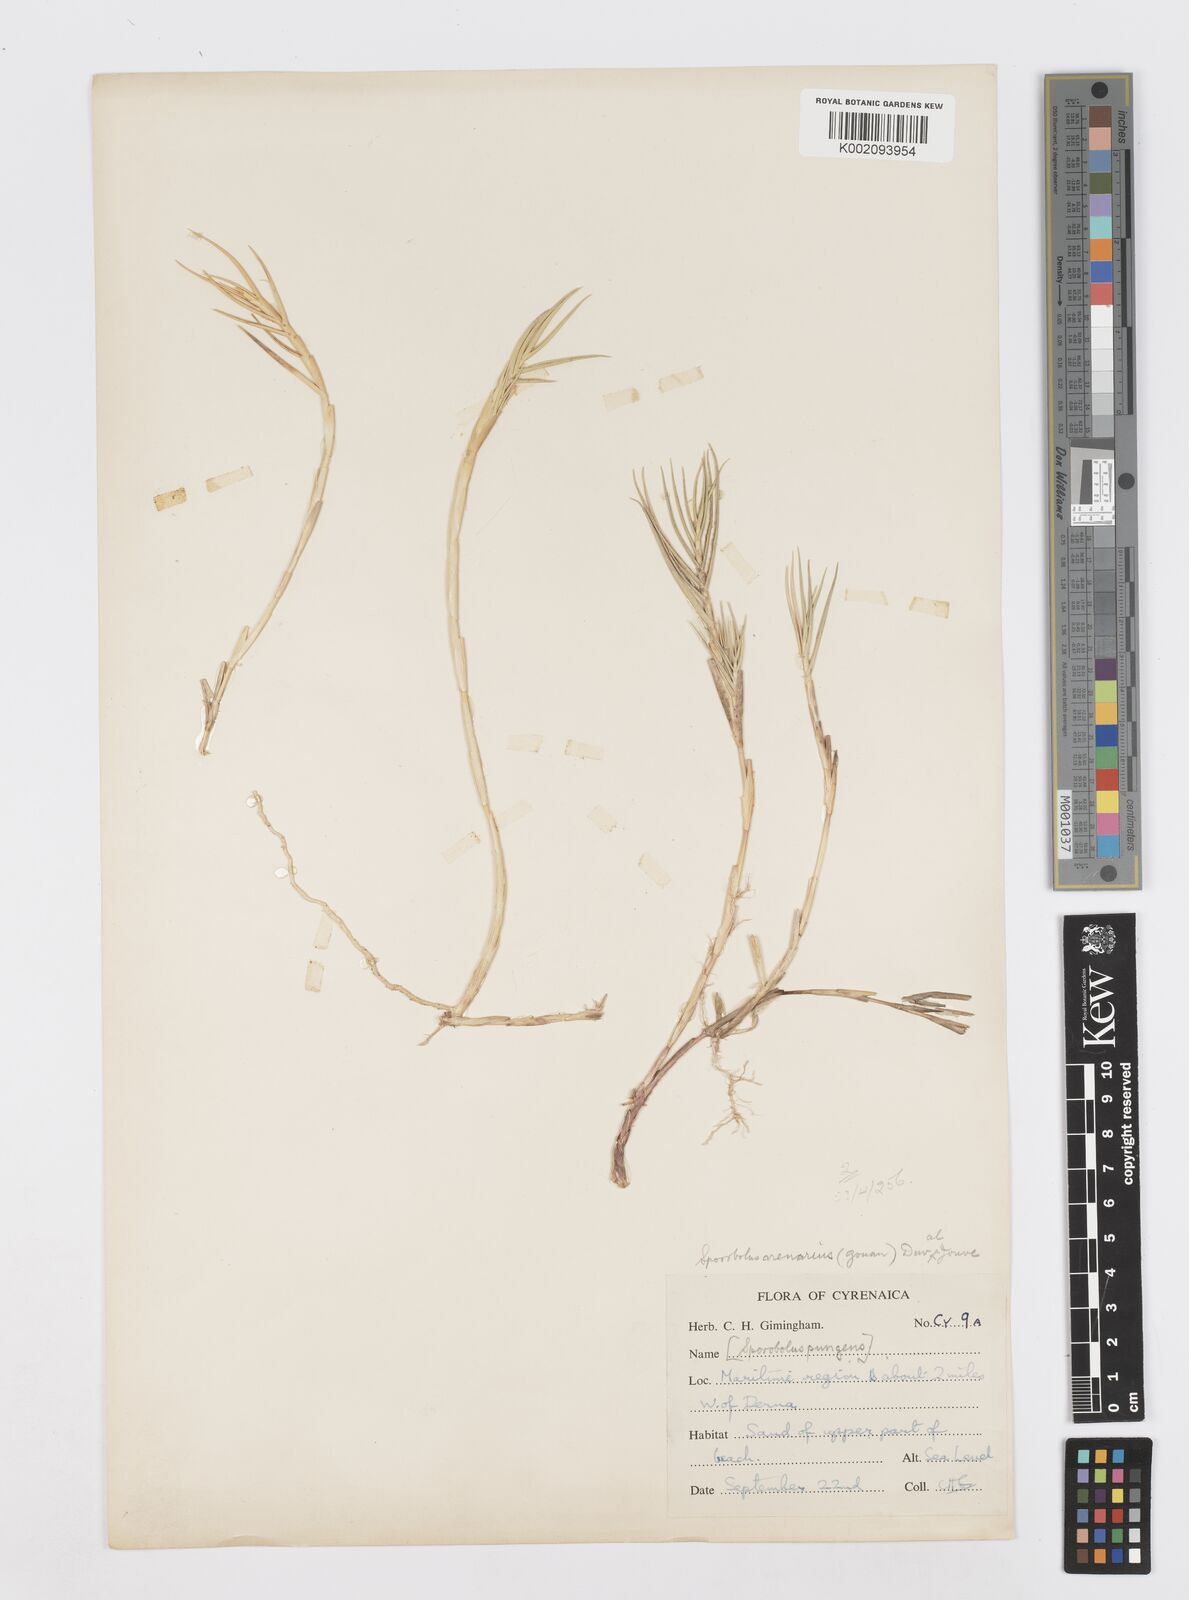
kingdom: Plantae
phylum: Tracheophyta
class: Liliopsida
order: Poales
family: Poaceae
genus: Sporobolus
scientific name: Sporobolus pungens
